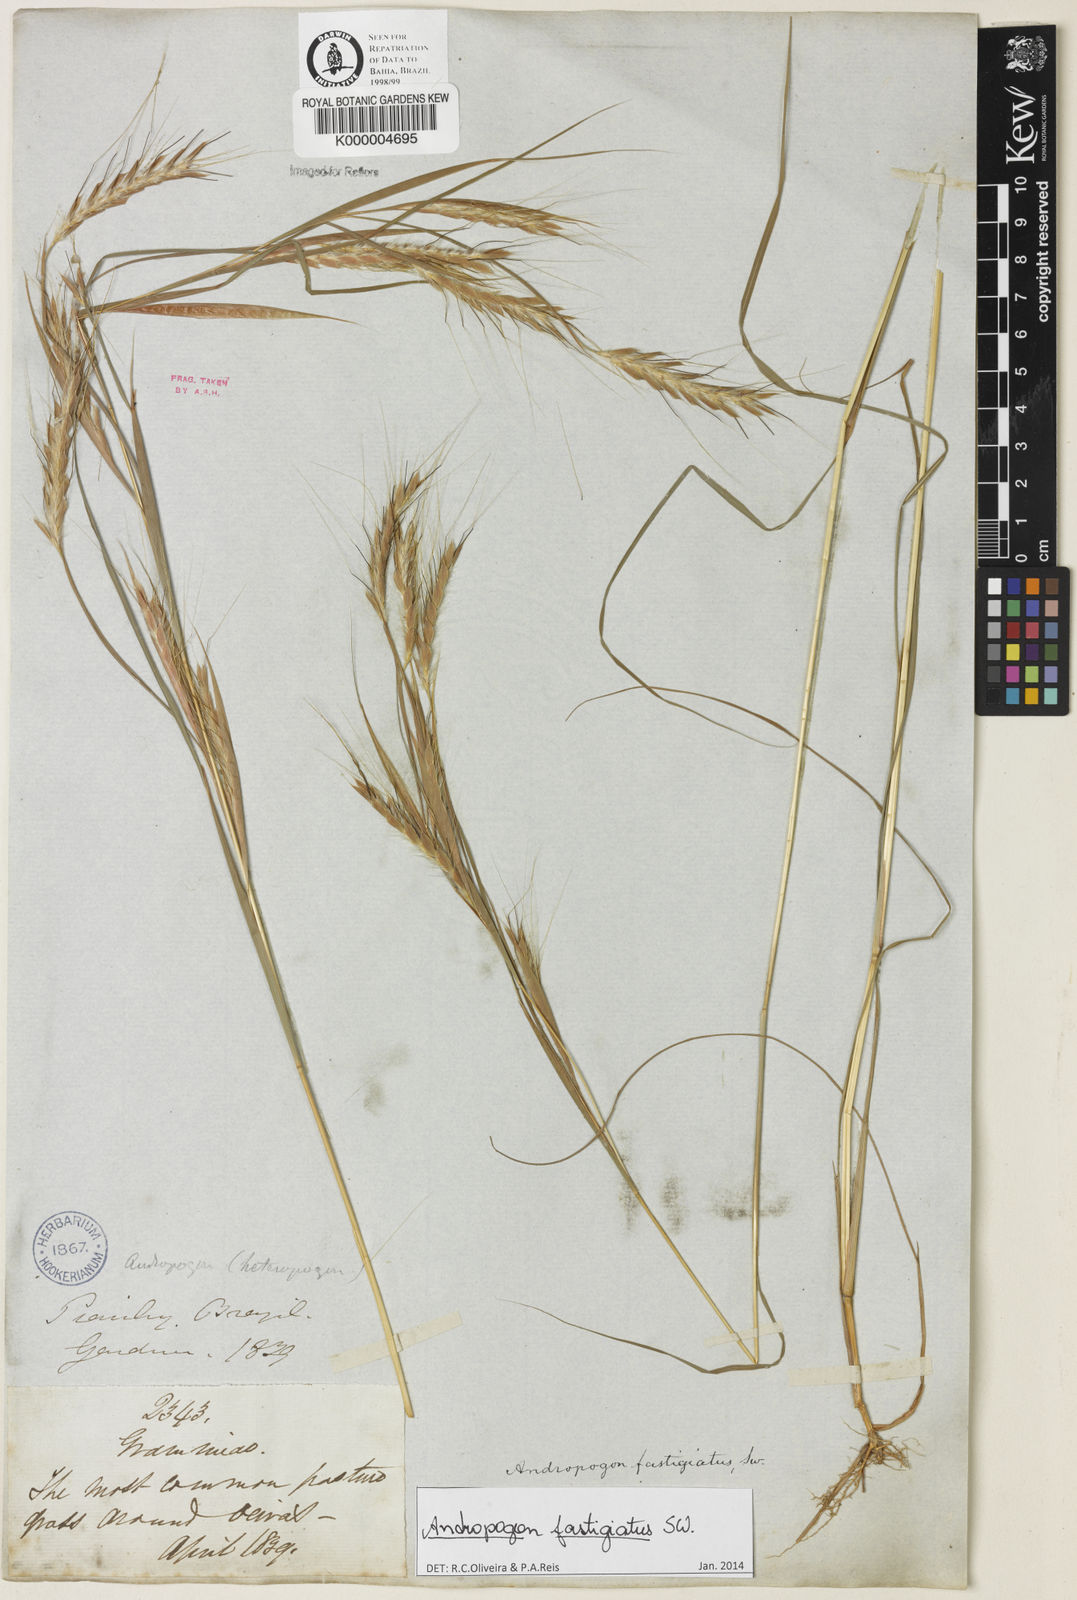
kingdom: Plantae
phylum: Tracheophyta
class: Liliopsida
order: Poales
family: Poaceae
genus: Diectomis
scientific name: Diectomis fastigiata
